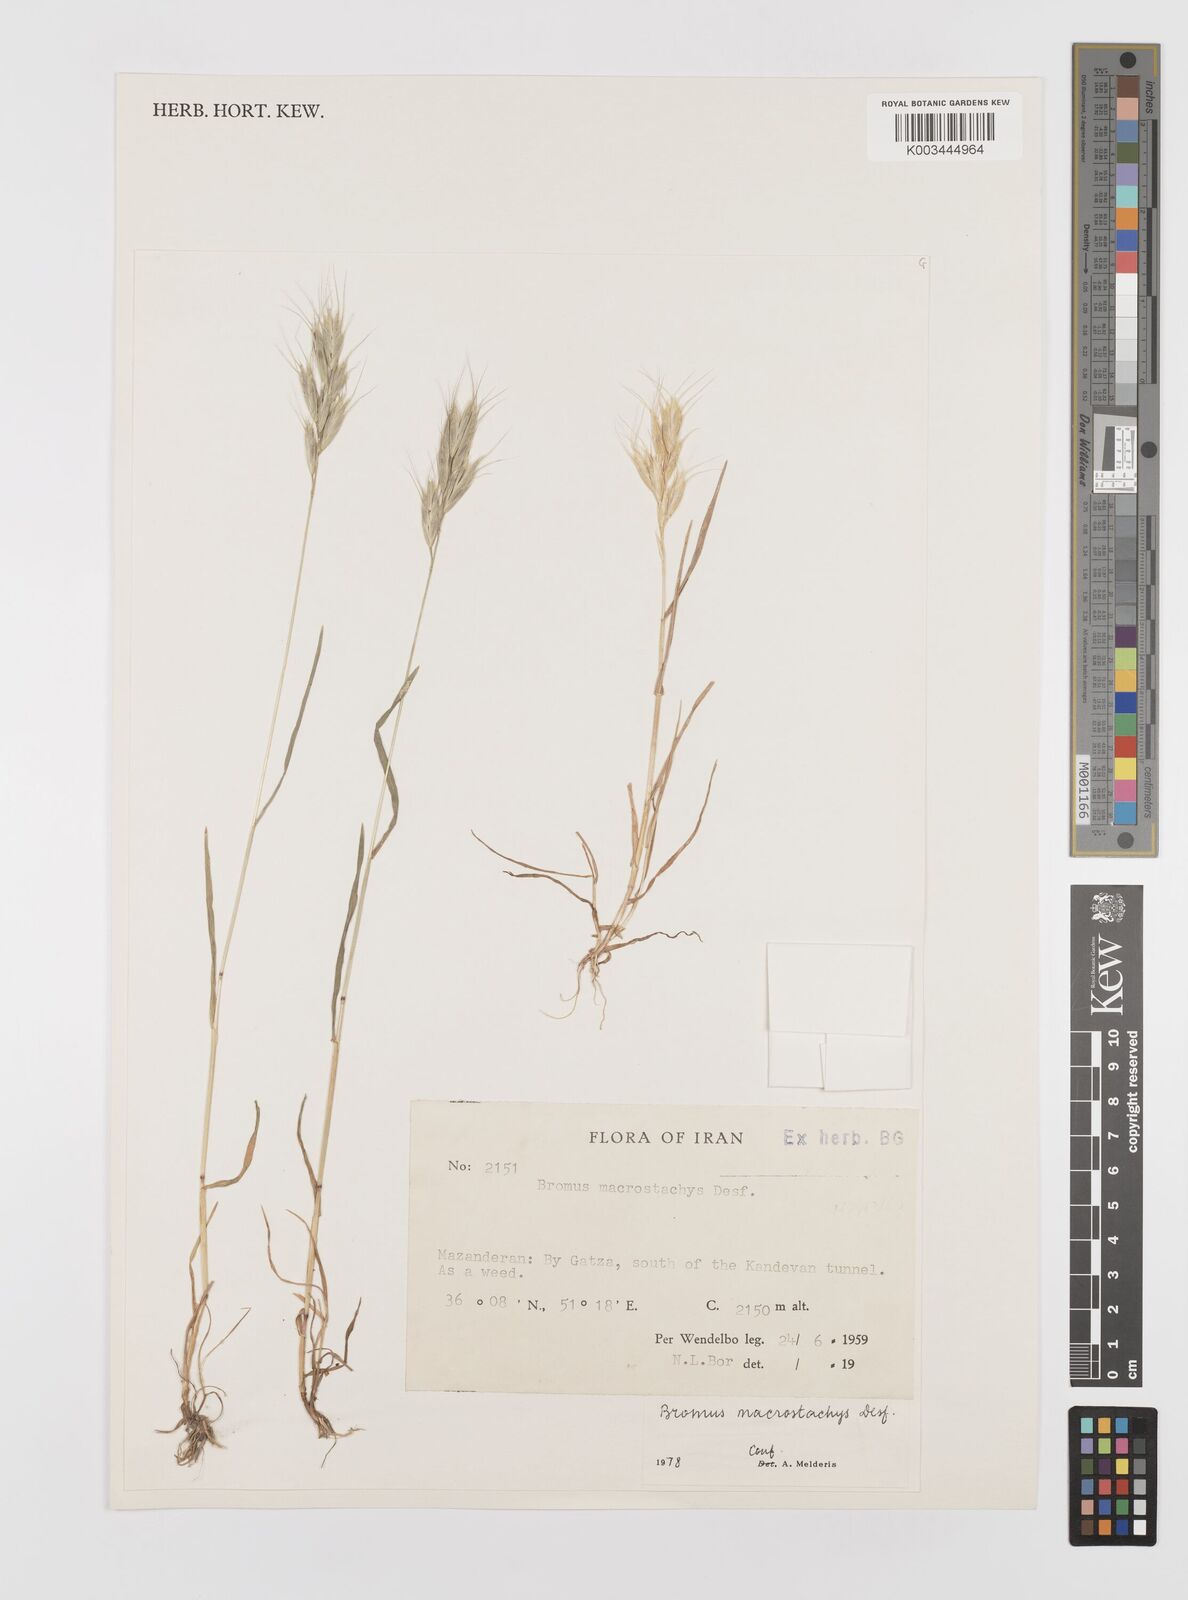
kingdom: Plantae
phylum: Tracheophyta
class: Liliopsida
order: Poales
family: Poaceae
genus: Bromus
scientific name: Bromus lanceolatus
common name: Mediterranean brome
